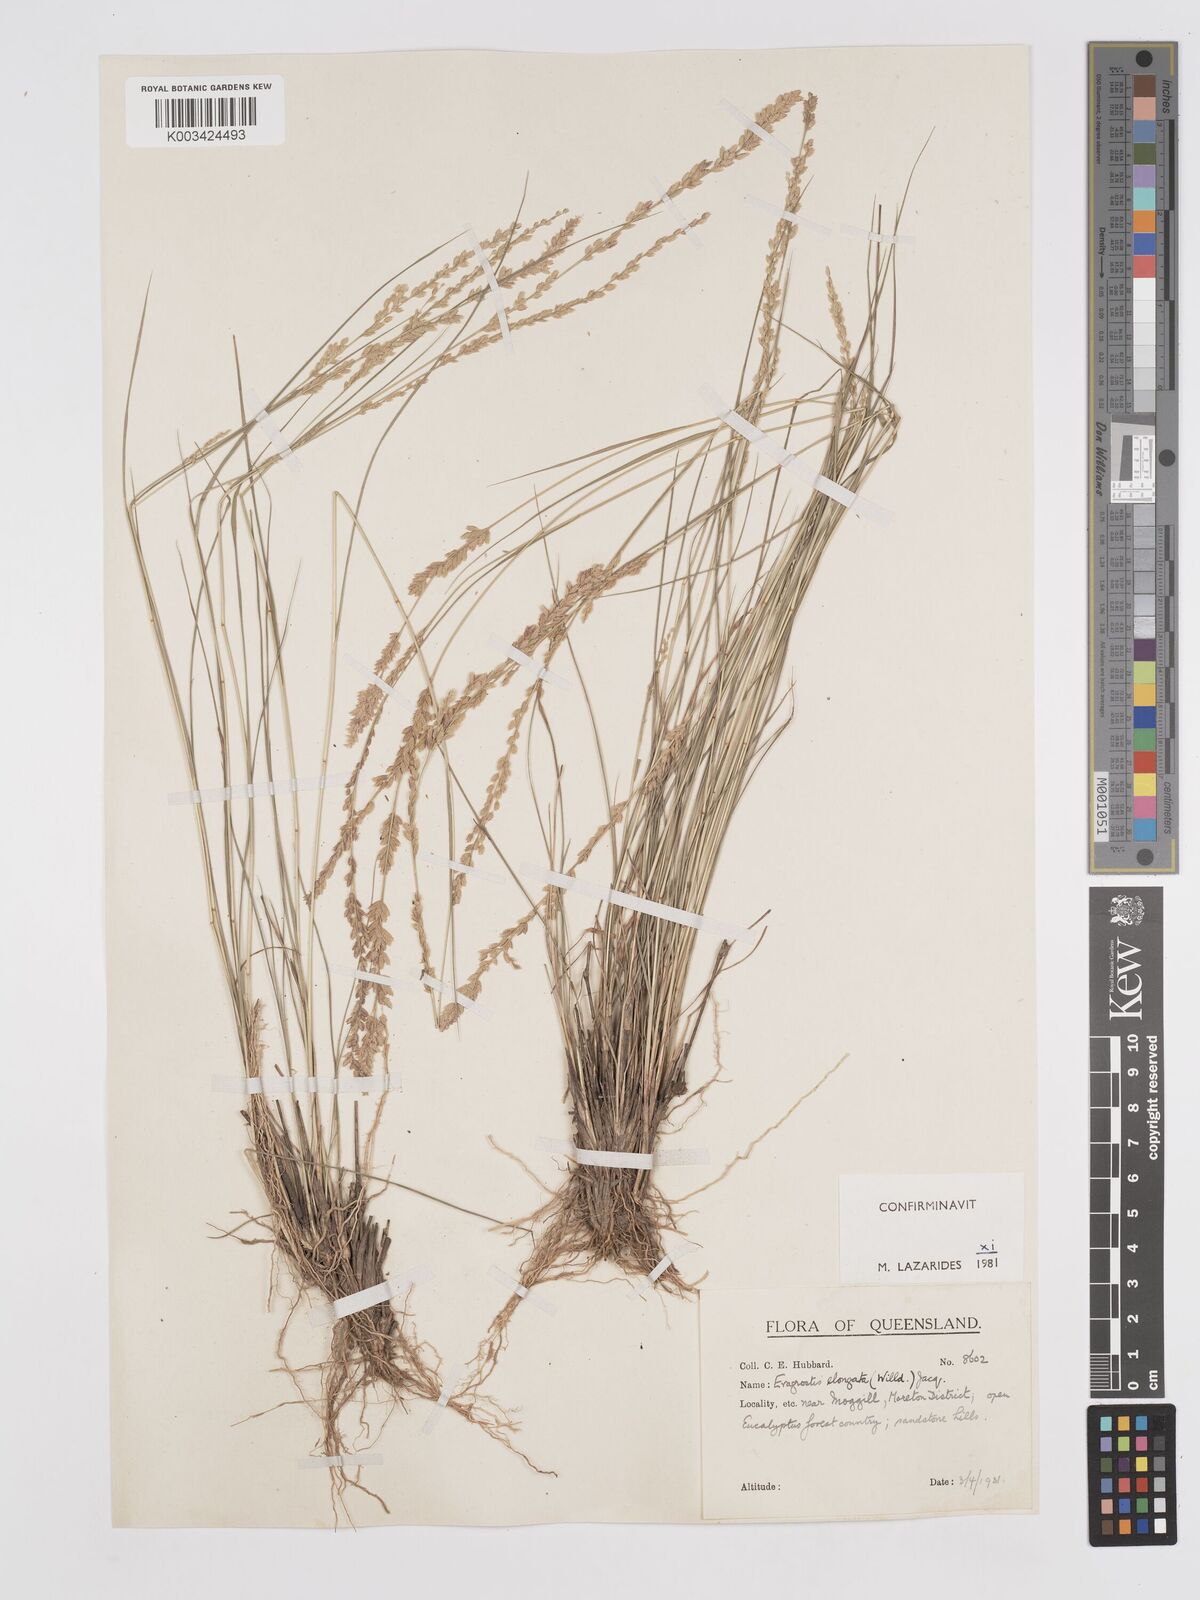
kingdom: Plantae
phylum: Tracheophyta
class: Liliopsida
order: Poales
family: Poaceae
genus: Eragrostis
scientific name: Eragrostis elongata
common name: Long lovegrass
